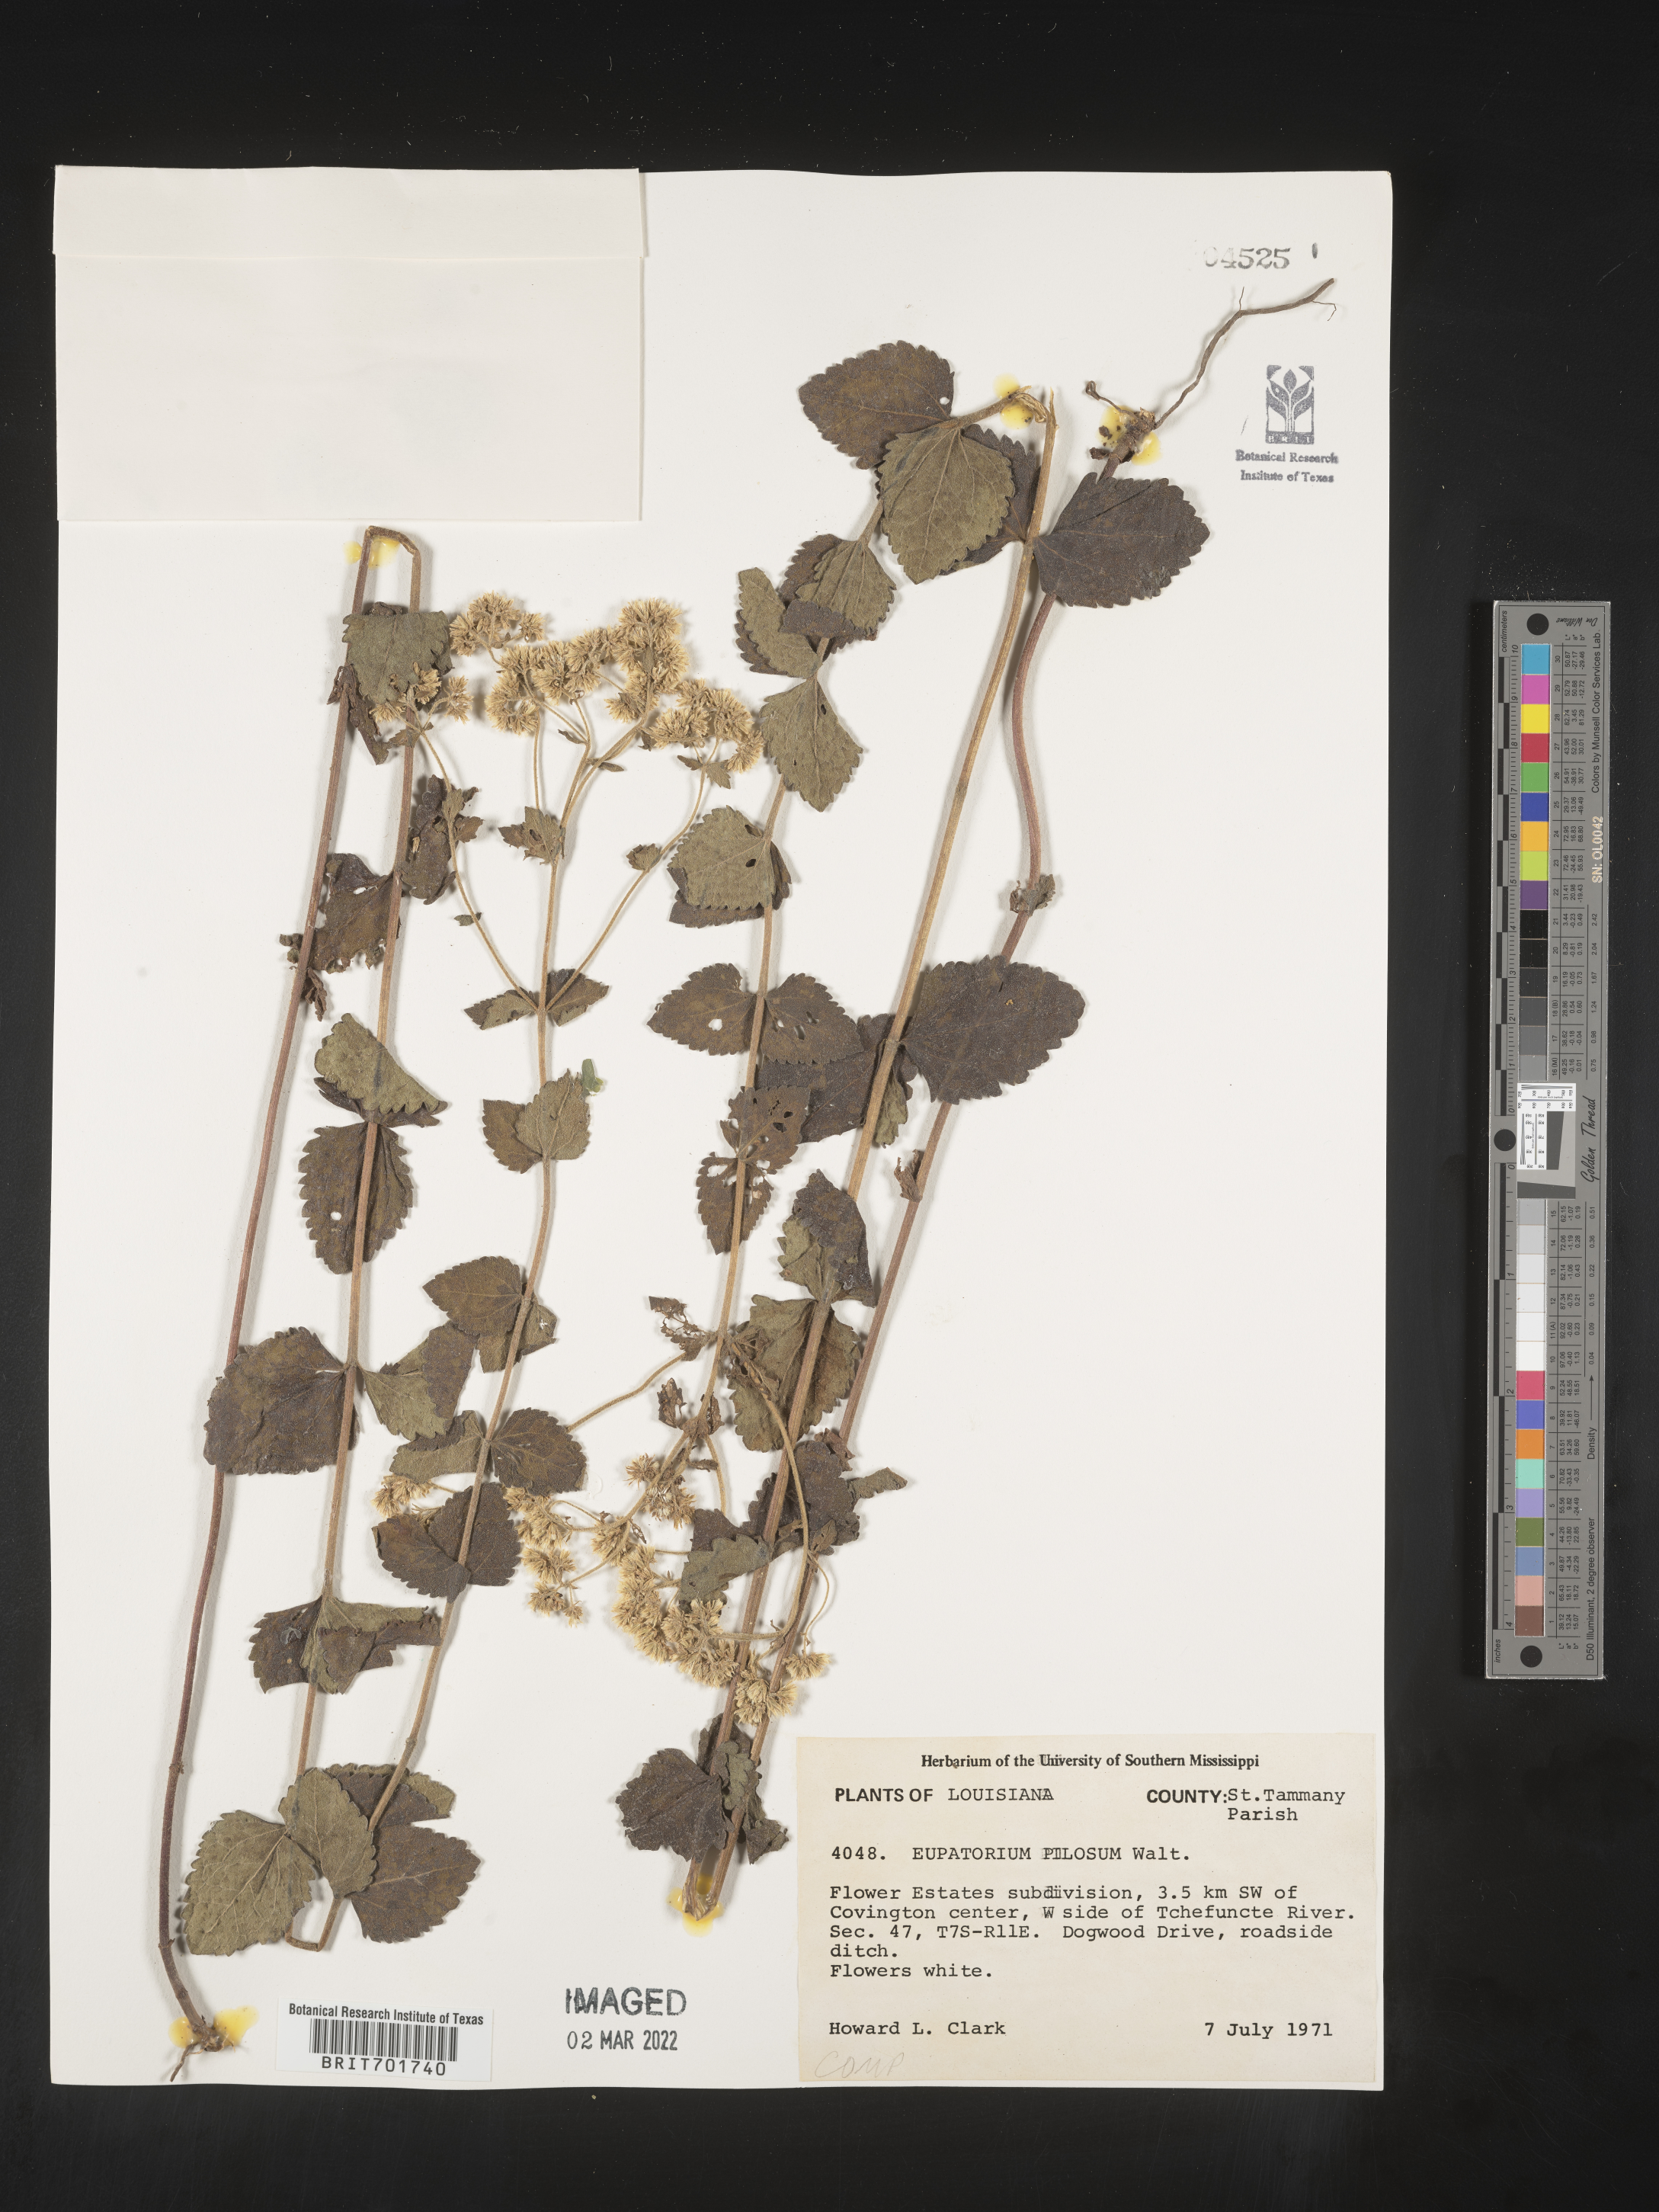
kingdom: Plantae
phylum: Tracheophyta
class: Magnoliopsida
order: Asterales
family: Asteraceae
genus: Eupatorium
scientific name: Eupatorium pilosum
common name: Rough boneset
